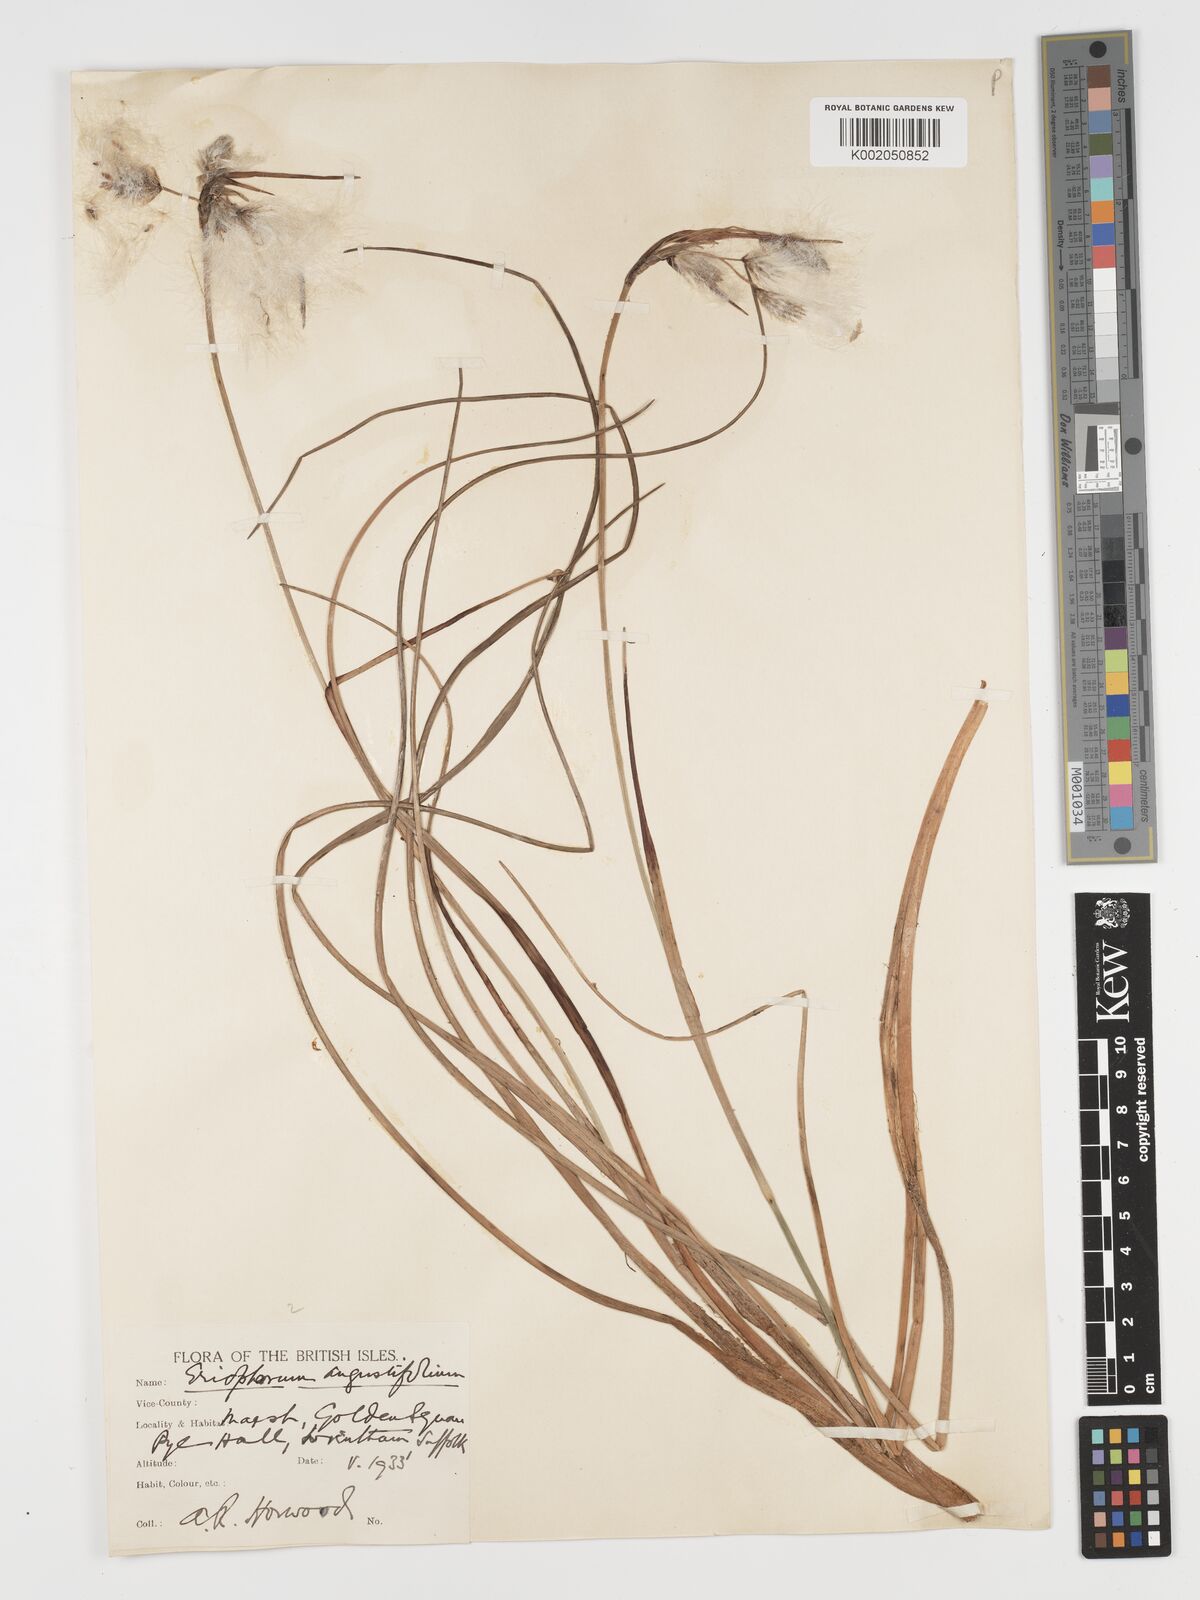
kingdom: Plantae
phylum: Tracheophyta
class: Liliopsida
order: Poales
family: Cyperaceae
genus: Eriophorum
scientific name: Eriophorum angustifolium
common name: Common cottongrass
